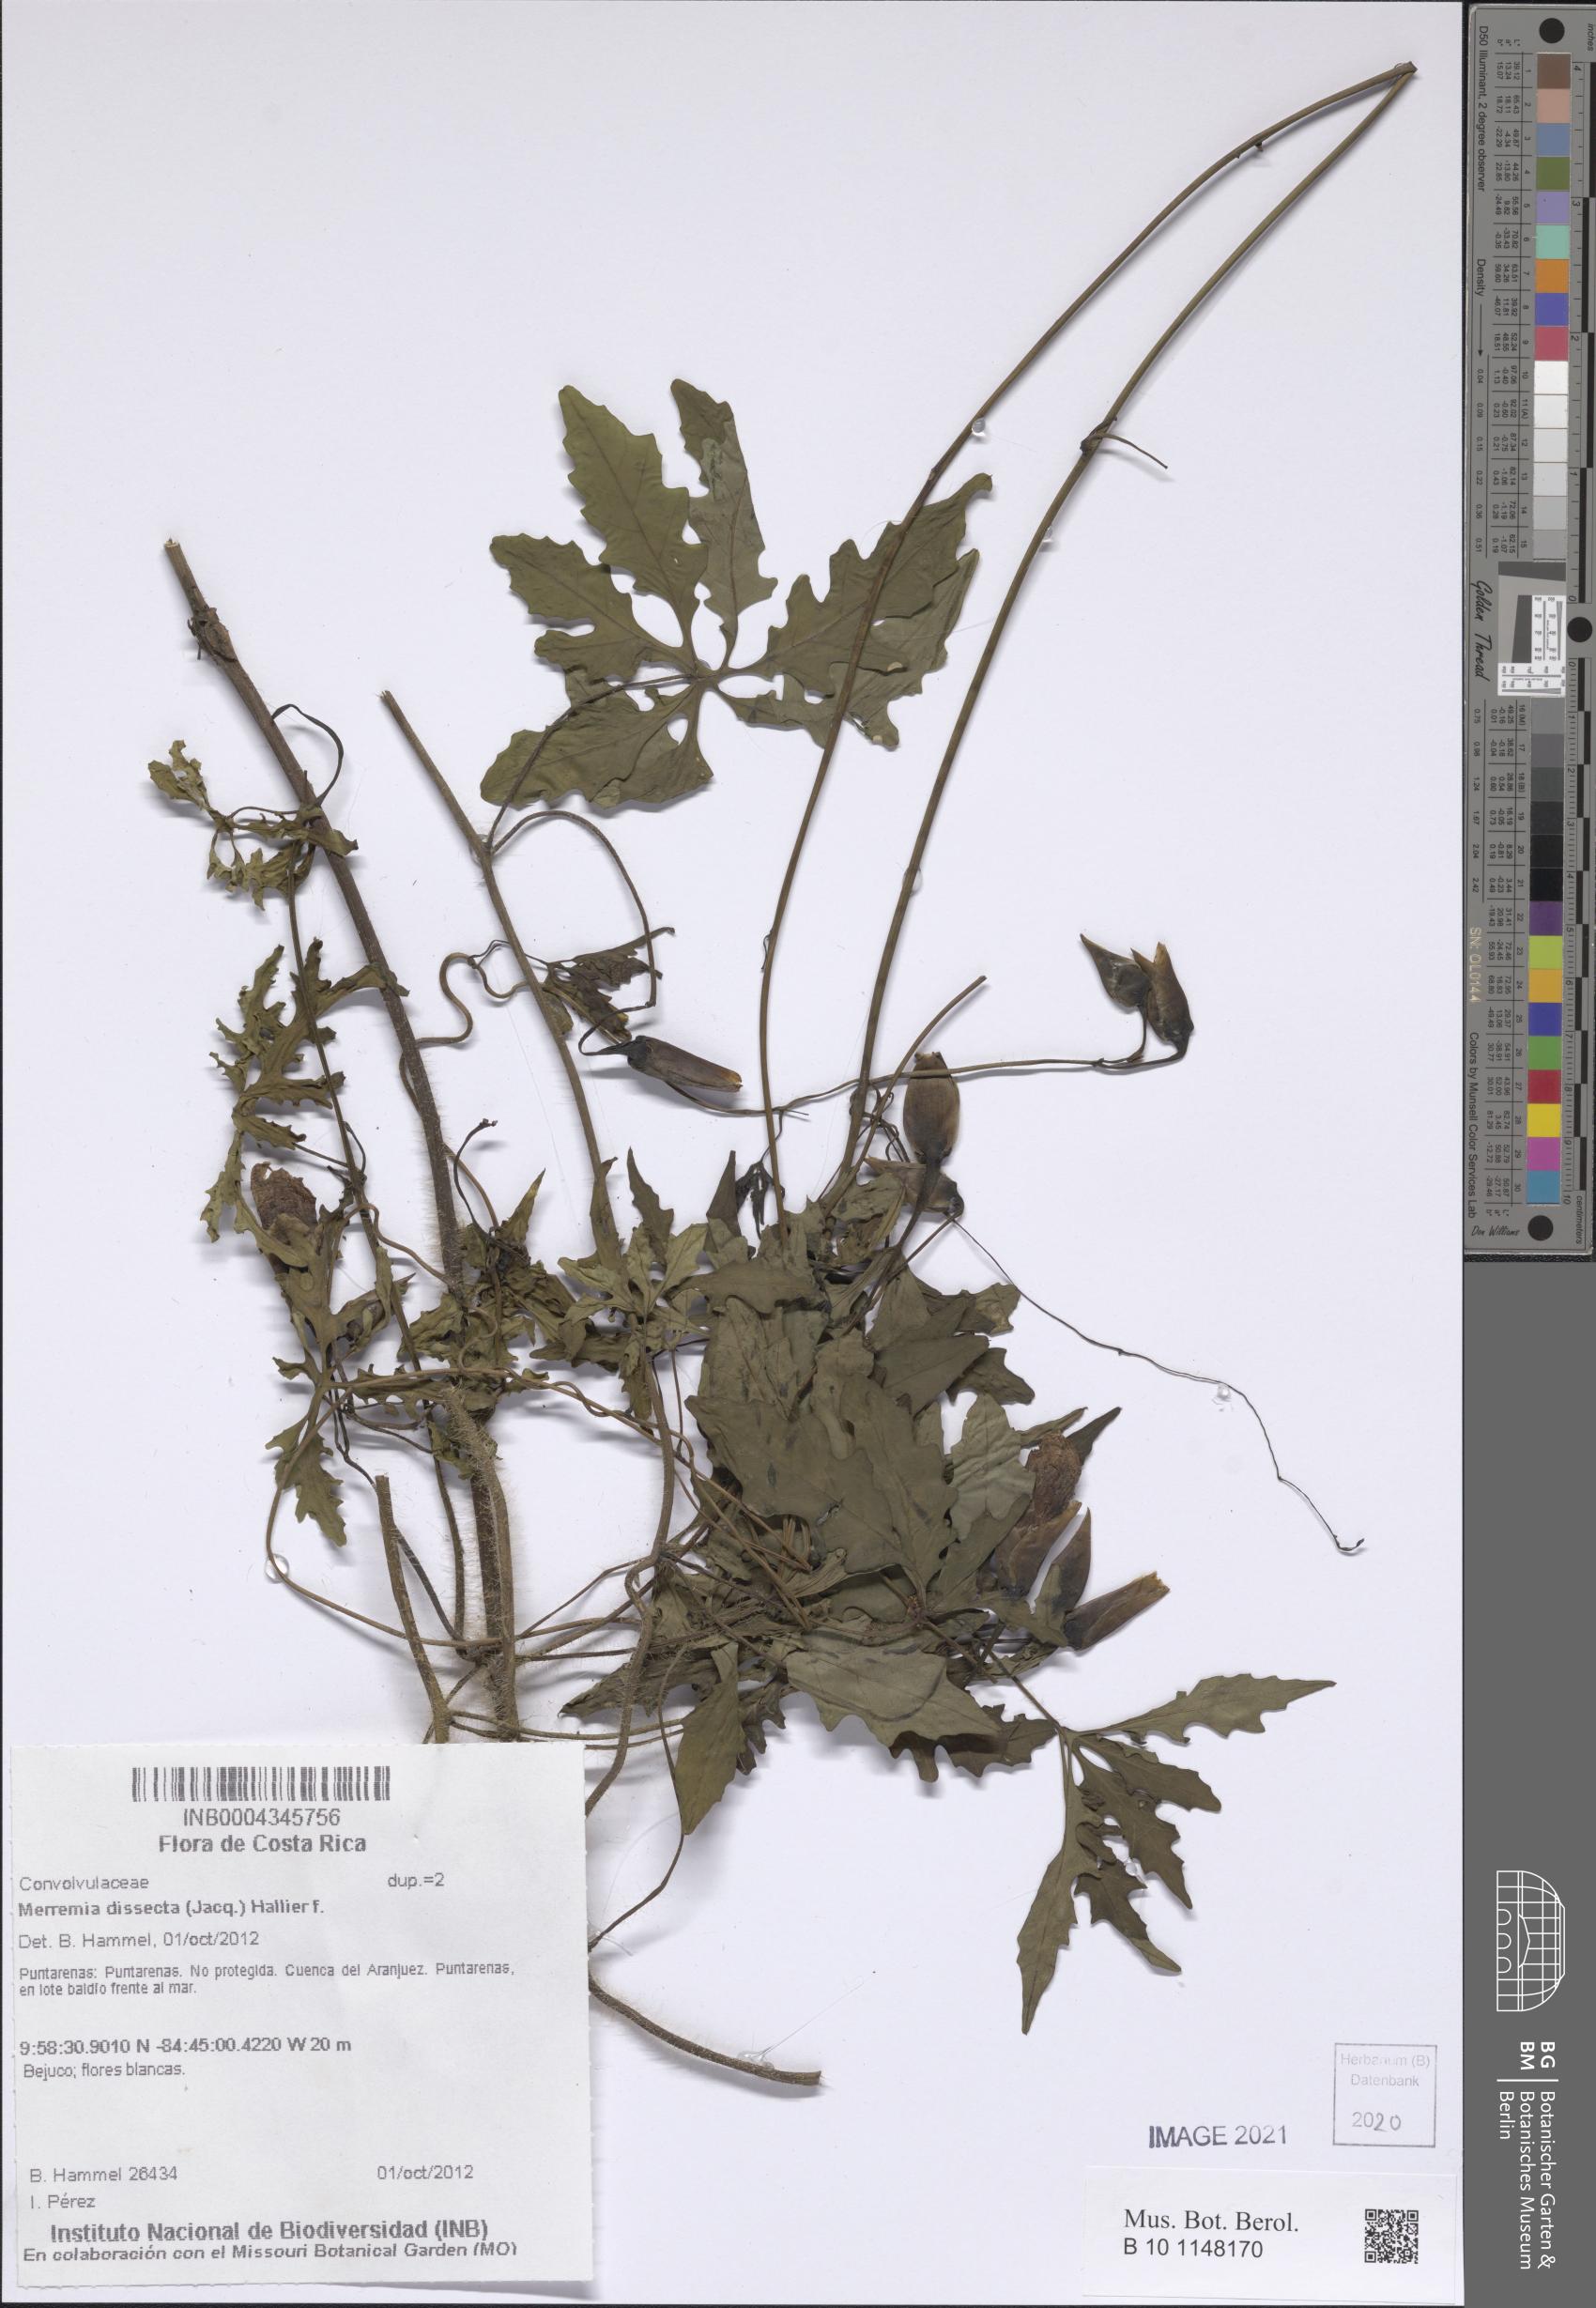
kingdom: Plantae
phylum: Tracheophyta
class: Magnoliopsida
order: Solanales
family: Convolvulaceae
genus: Distimake
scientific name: Distimake dissectus
